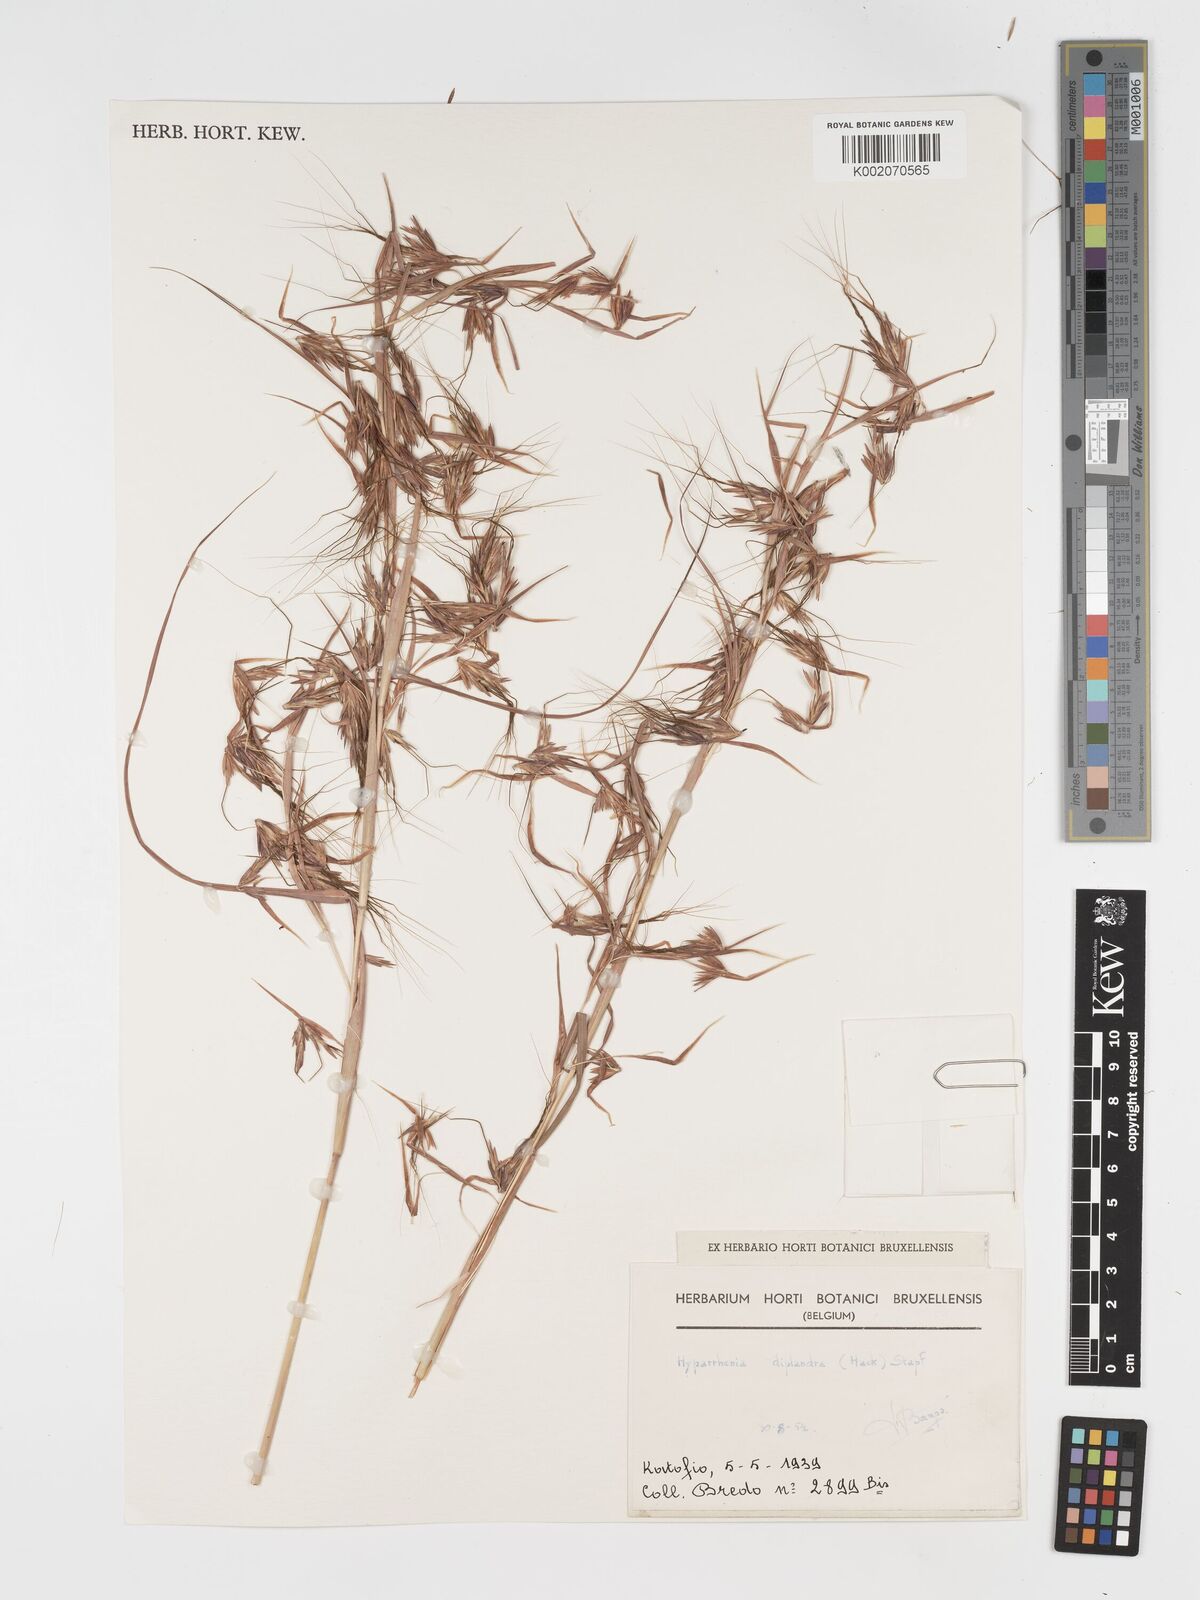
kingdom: Plantae
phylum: Tracheophyta
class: Liliopsida
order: Poales
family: Poaceae
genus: Hyparrhenia
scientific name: Hyparrhenia diplandra
